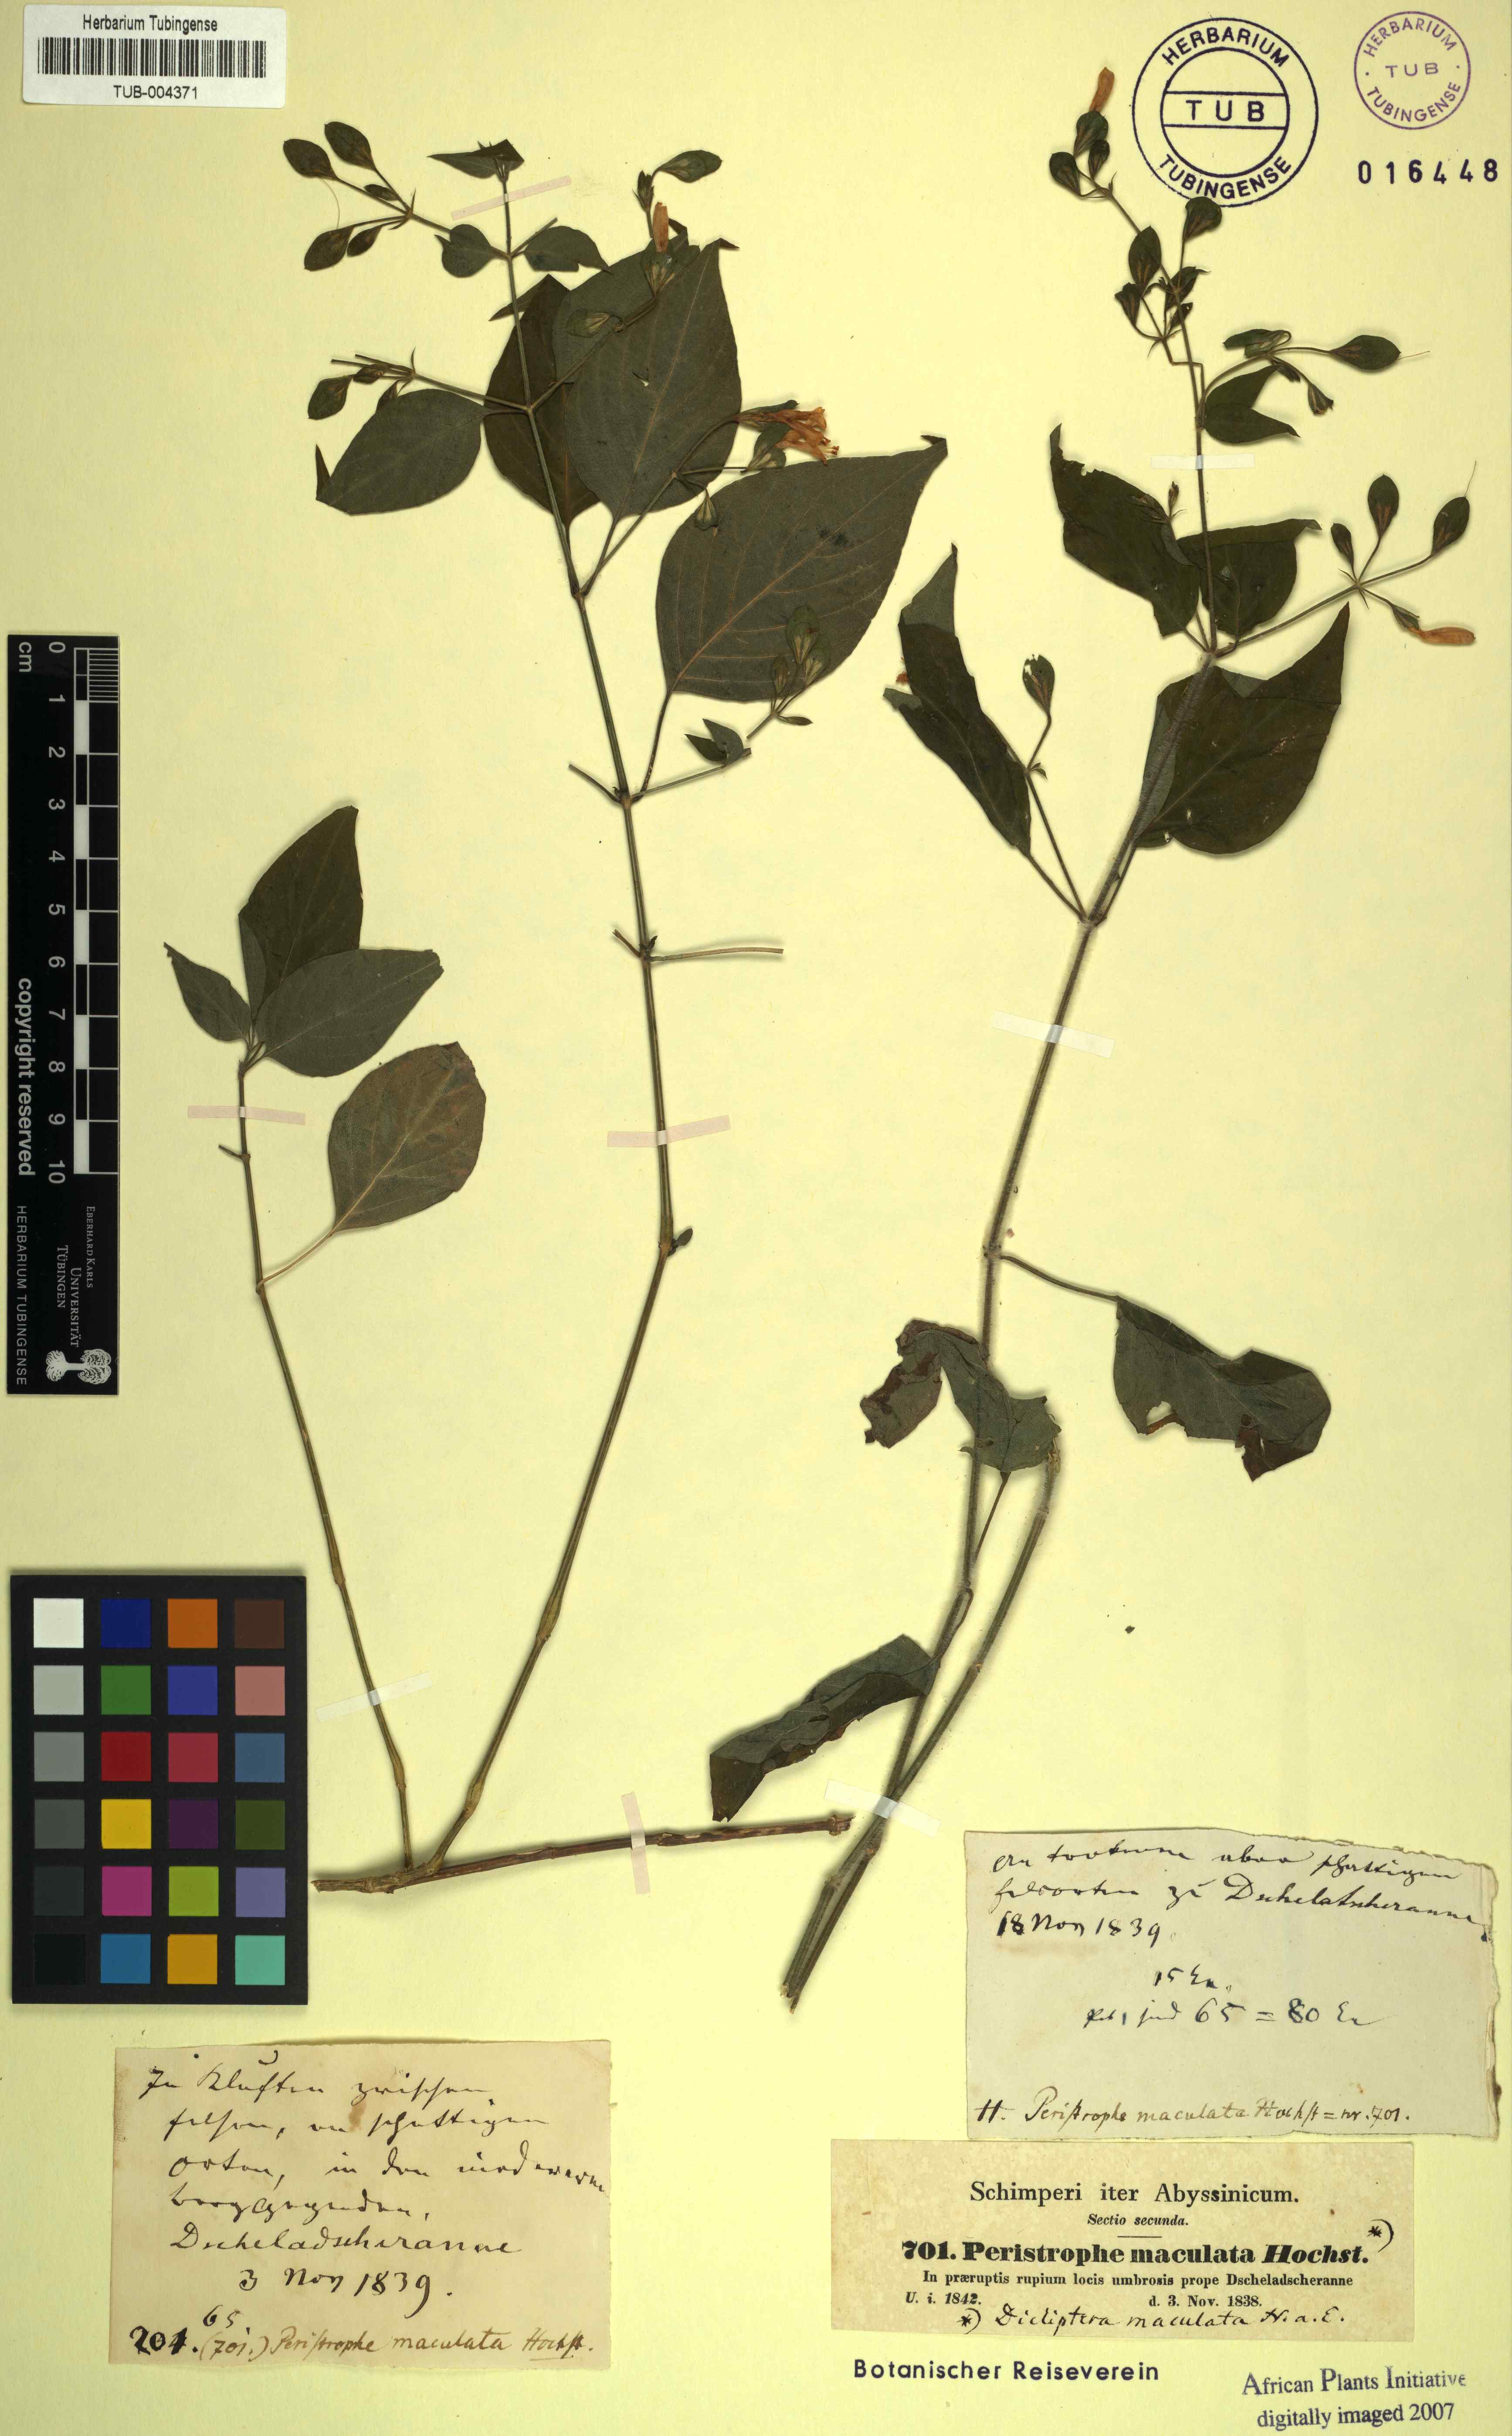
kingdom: Plantae
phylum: Tracheophyta
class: Magnoliopsida
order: Lamiales
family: Acanthaceae
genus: Dicliptera
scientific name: Dicliptera maculata
